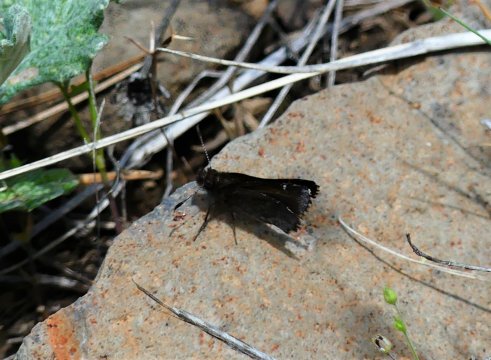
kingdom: Animalia
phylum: Arthropoda
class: Insecta
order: Lepidoptera
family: Hesperiidae
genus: Mastor
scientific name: Mastor vialis
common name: Common Roadside-Skipper
